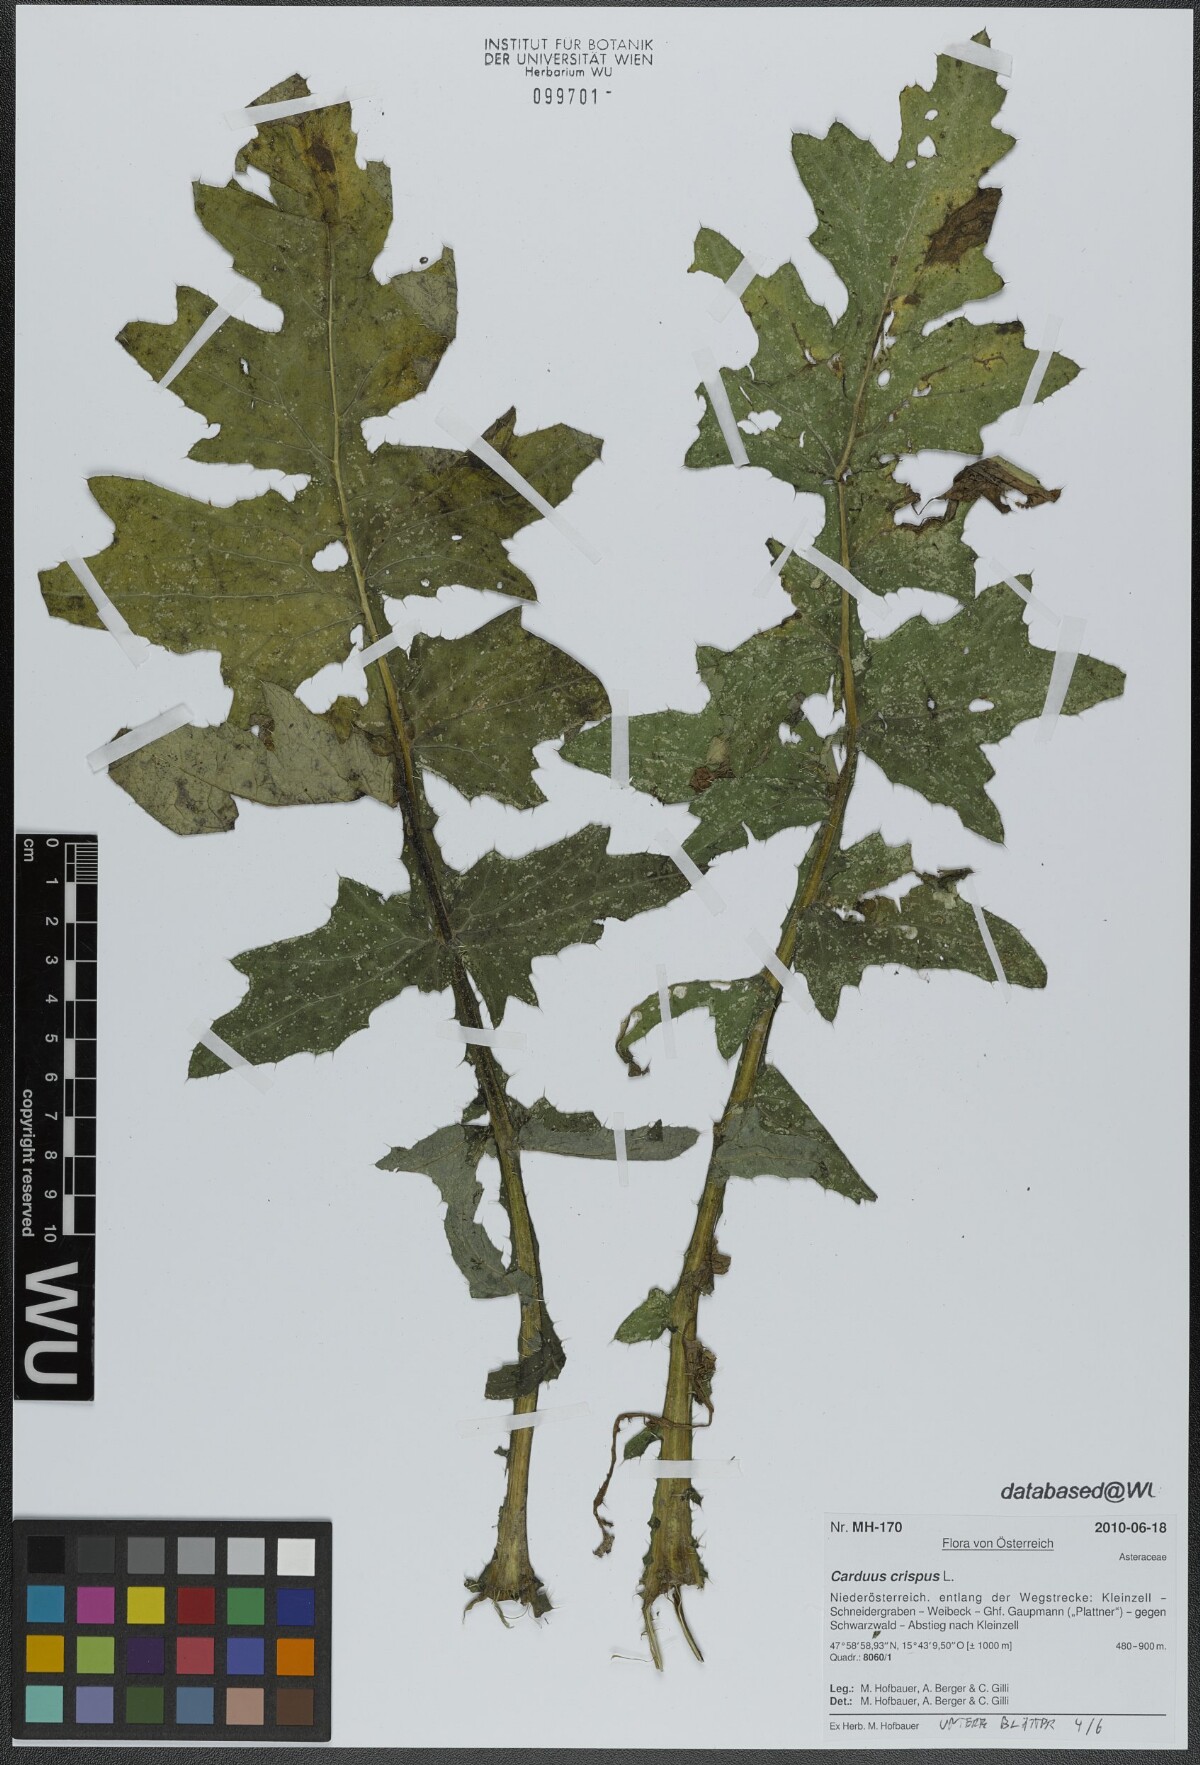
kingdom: Plantae
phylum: Tracheophyta
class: Magnoliopsida
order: Asterales
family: Asteraceae
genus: Carduus
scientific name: Carduus crispus
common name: Welted thistle
